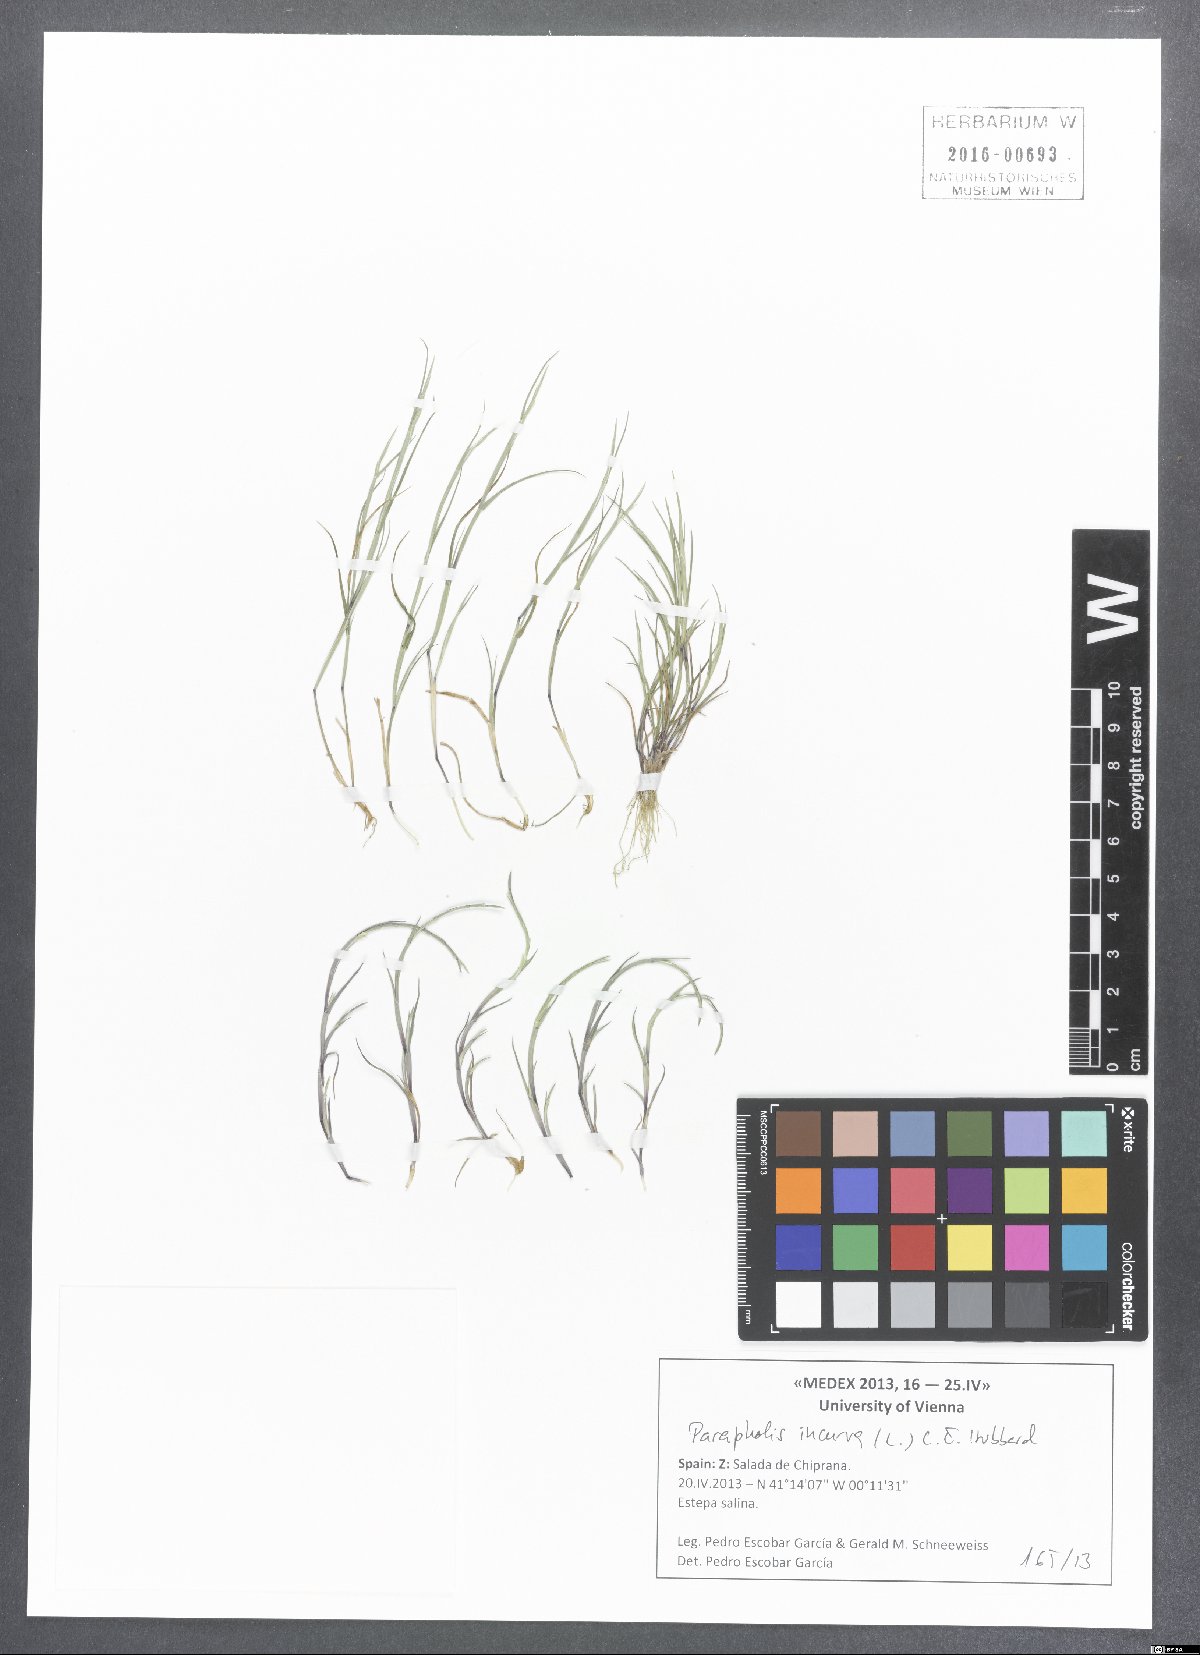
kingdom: Plantae
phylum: Tracheophyta
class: Liliopsida
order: Poales
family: Poaceae
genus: Parapholis
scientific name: Parapholis incurva
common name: Curved sicklegrass
